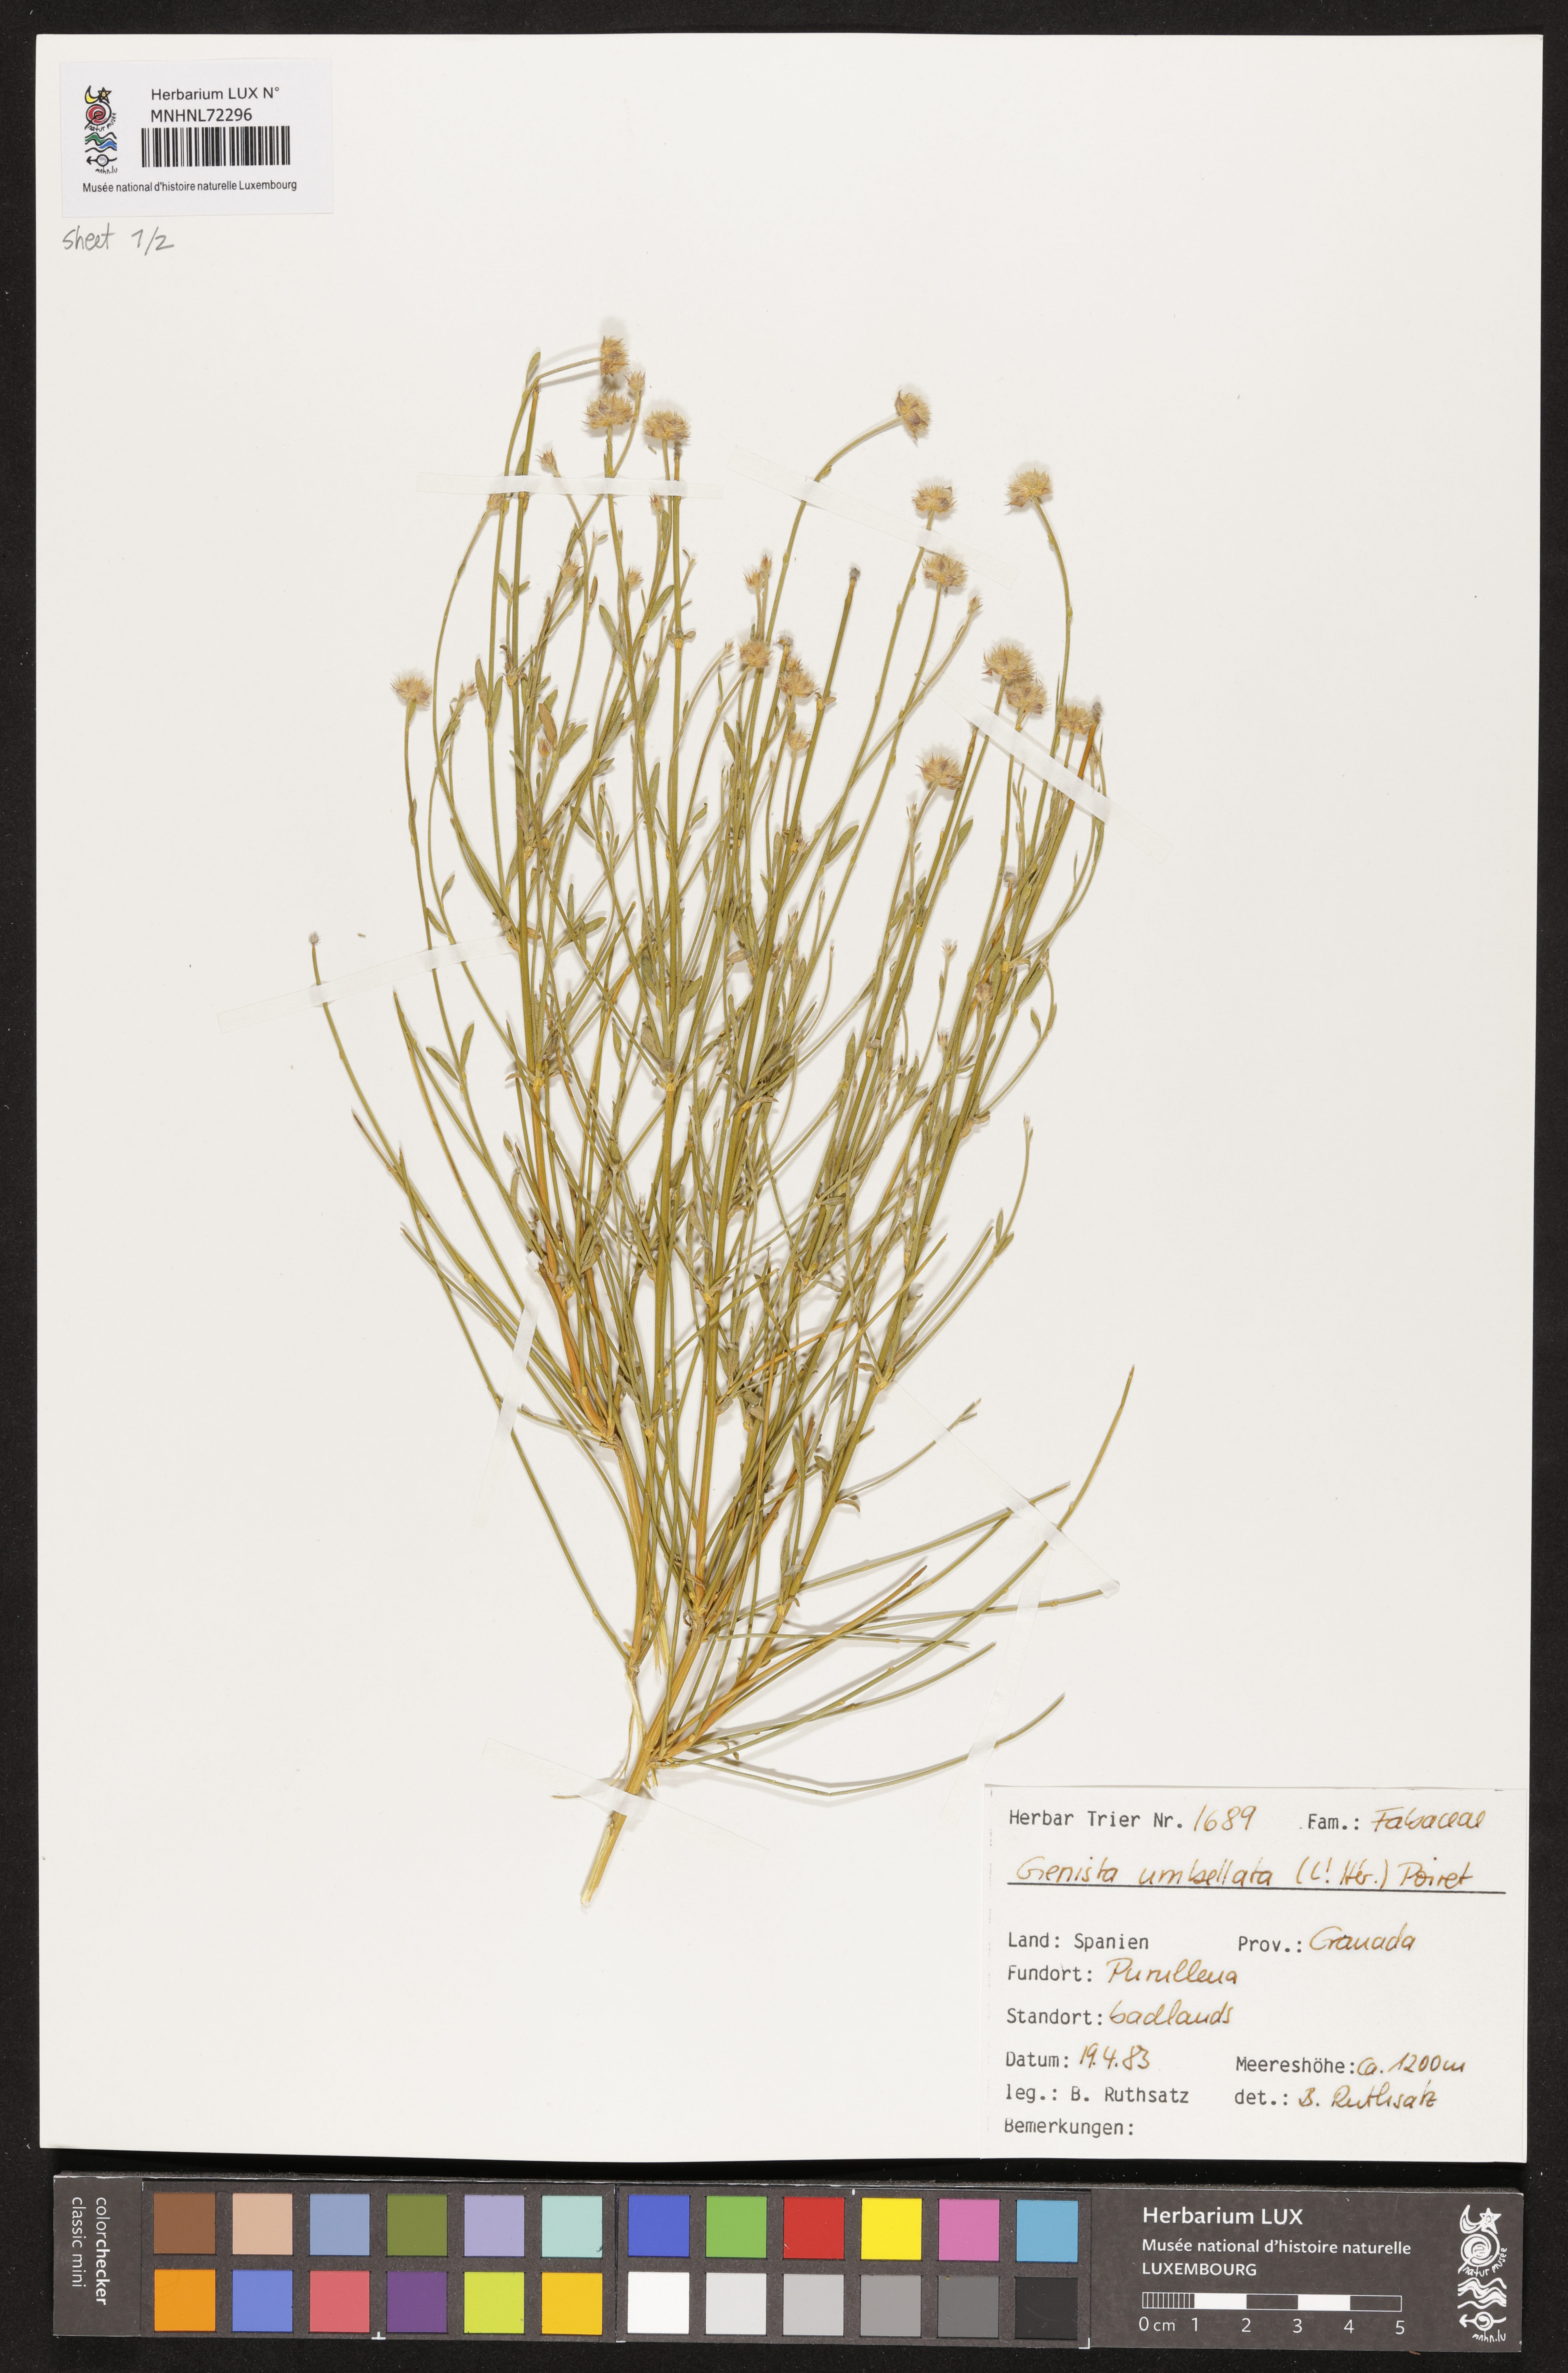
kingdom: Plantae
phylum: Tracheophyta
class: Magnoliopsida
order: Fabales
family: Fabaceae
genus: Genista
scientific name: Genista umbellata
